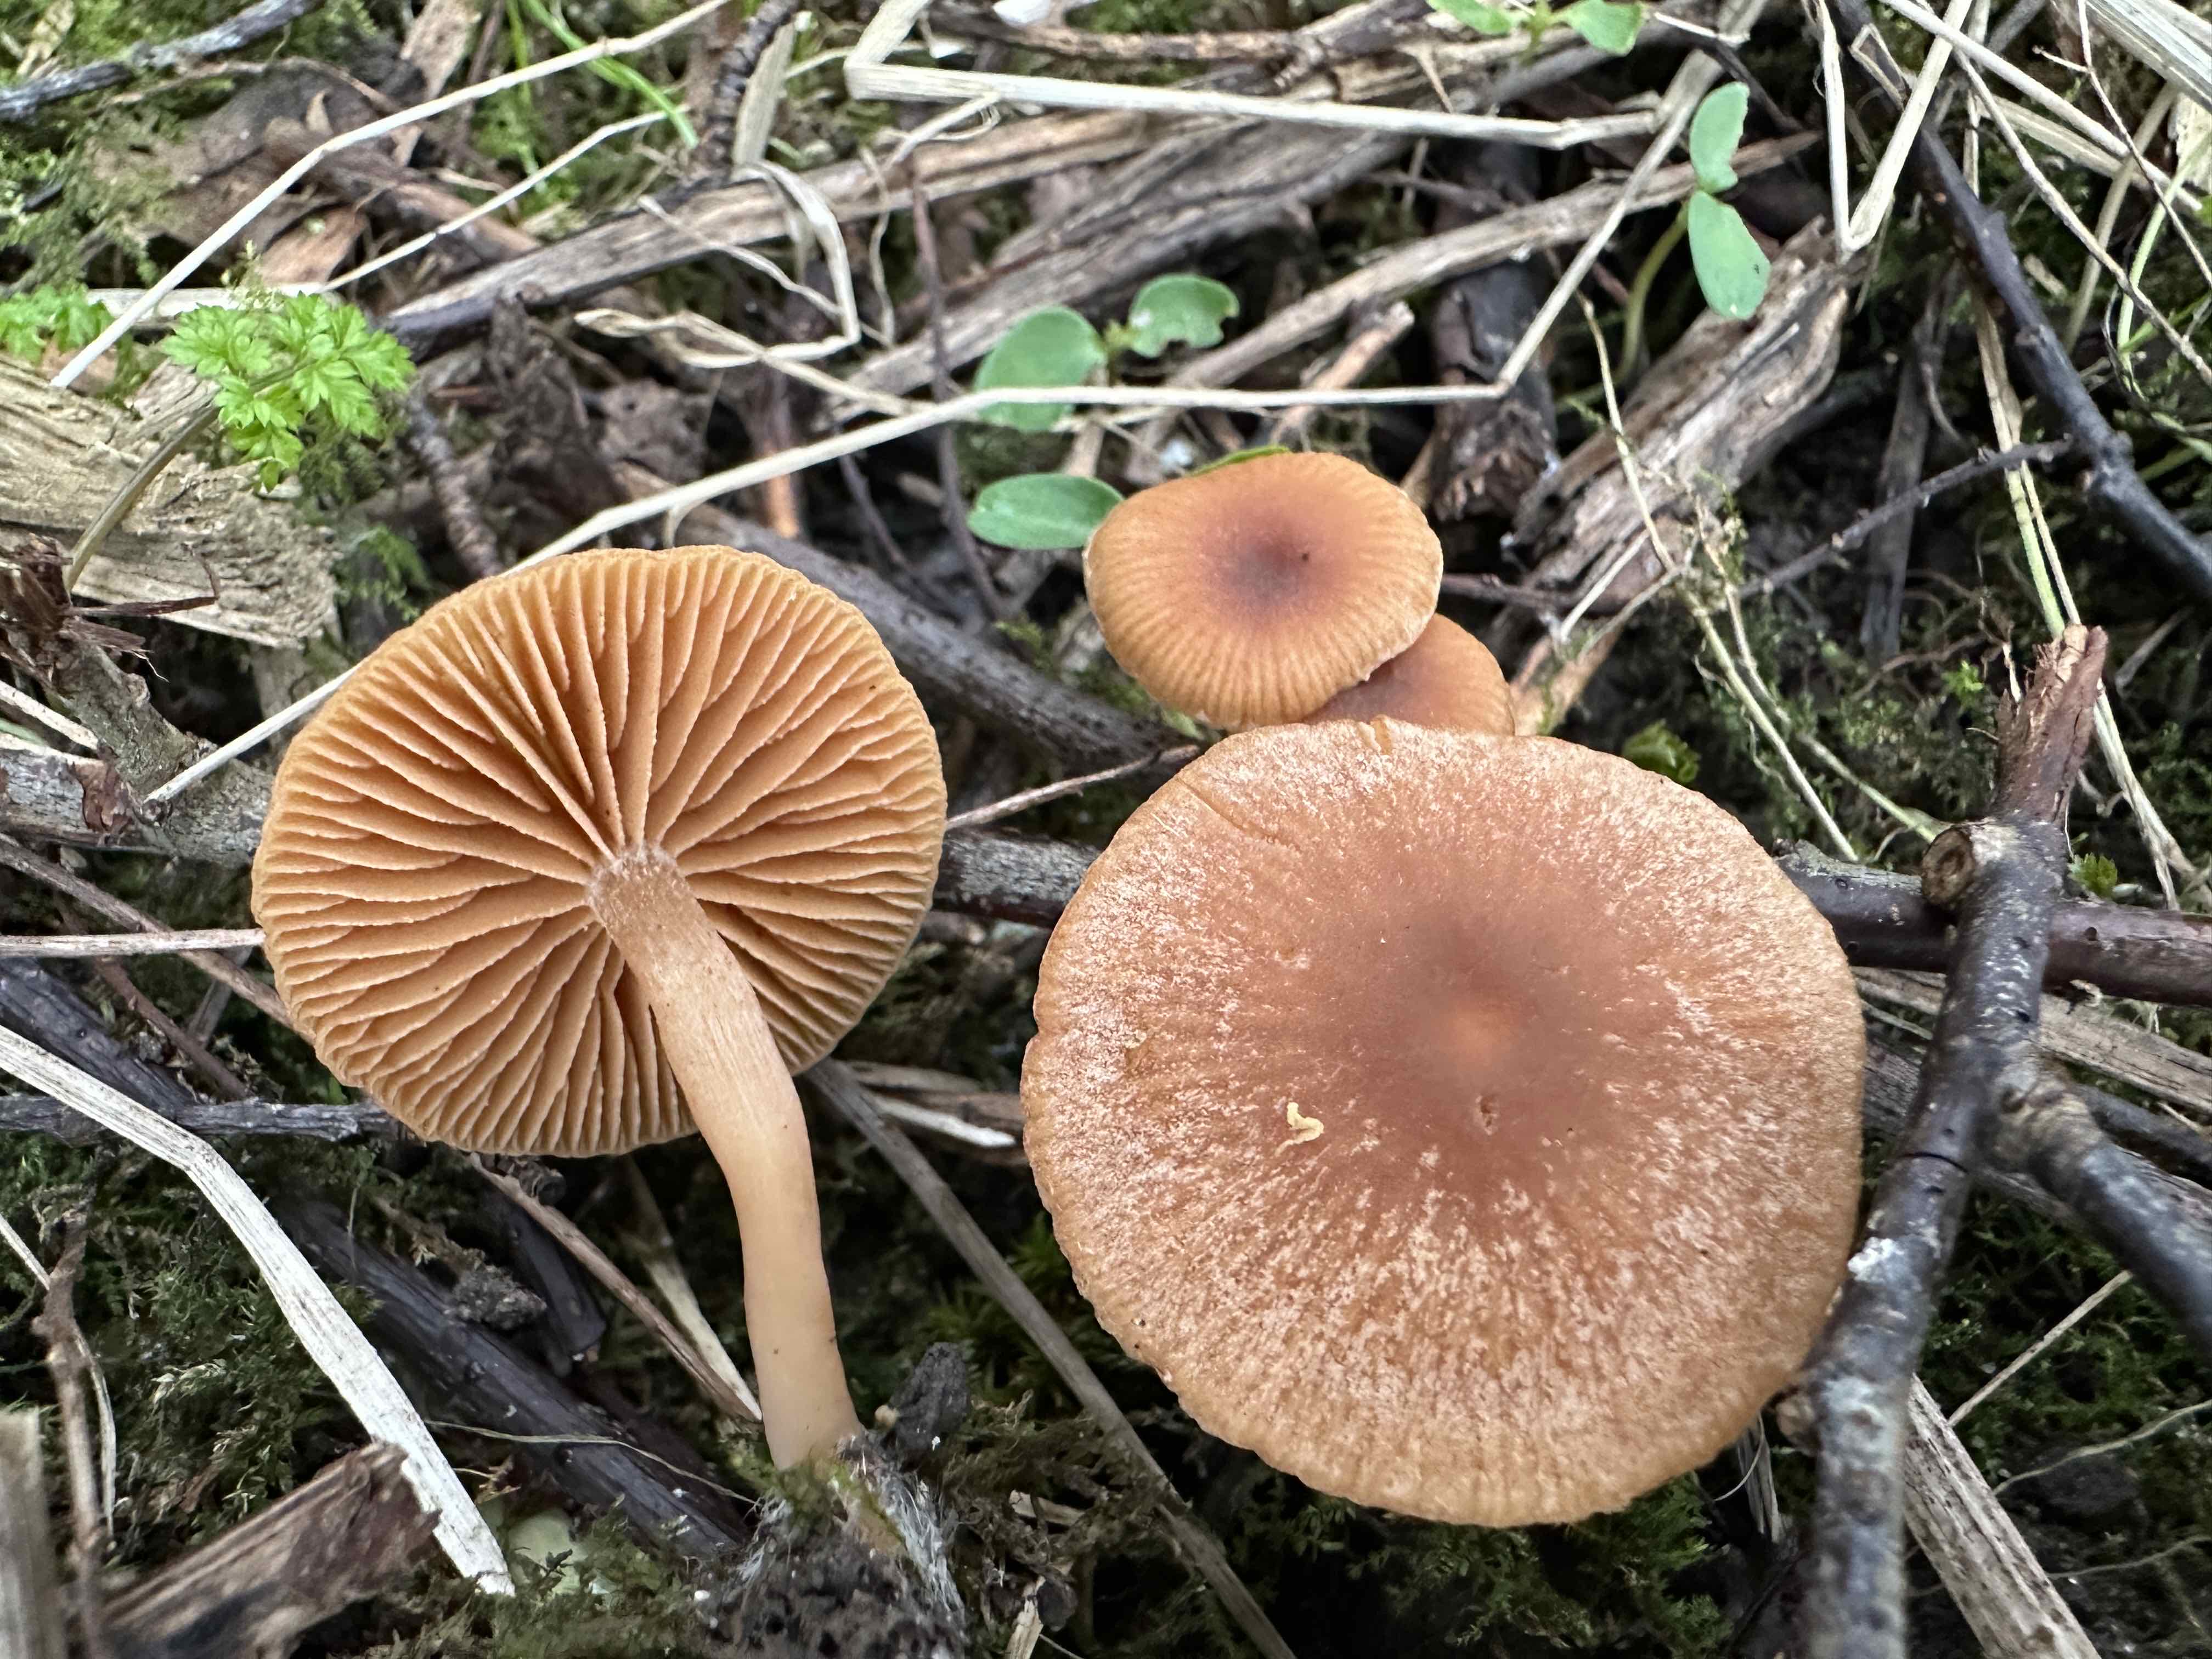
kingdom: Fungi
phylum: Basidiomycota
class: Agaricomycetes
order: Agaricales
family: Tubariaceae
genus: Tubaria
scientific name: Tubaria furfuracea
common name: kliddet fnughat
